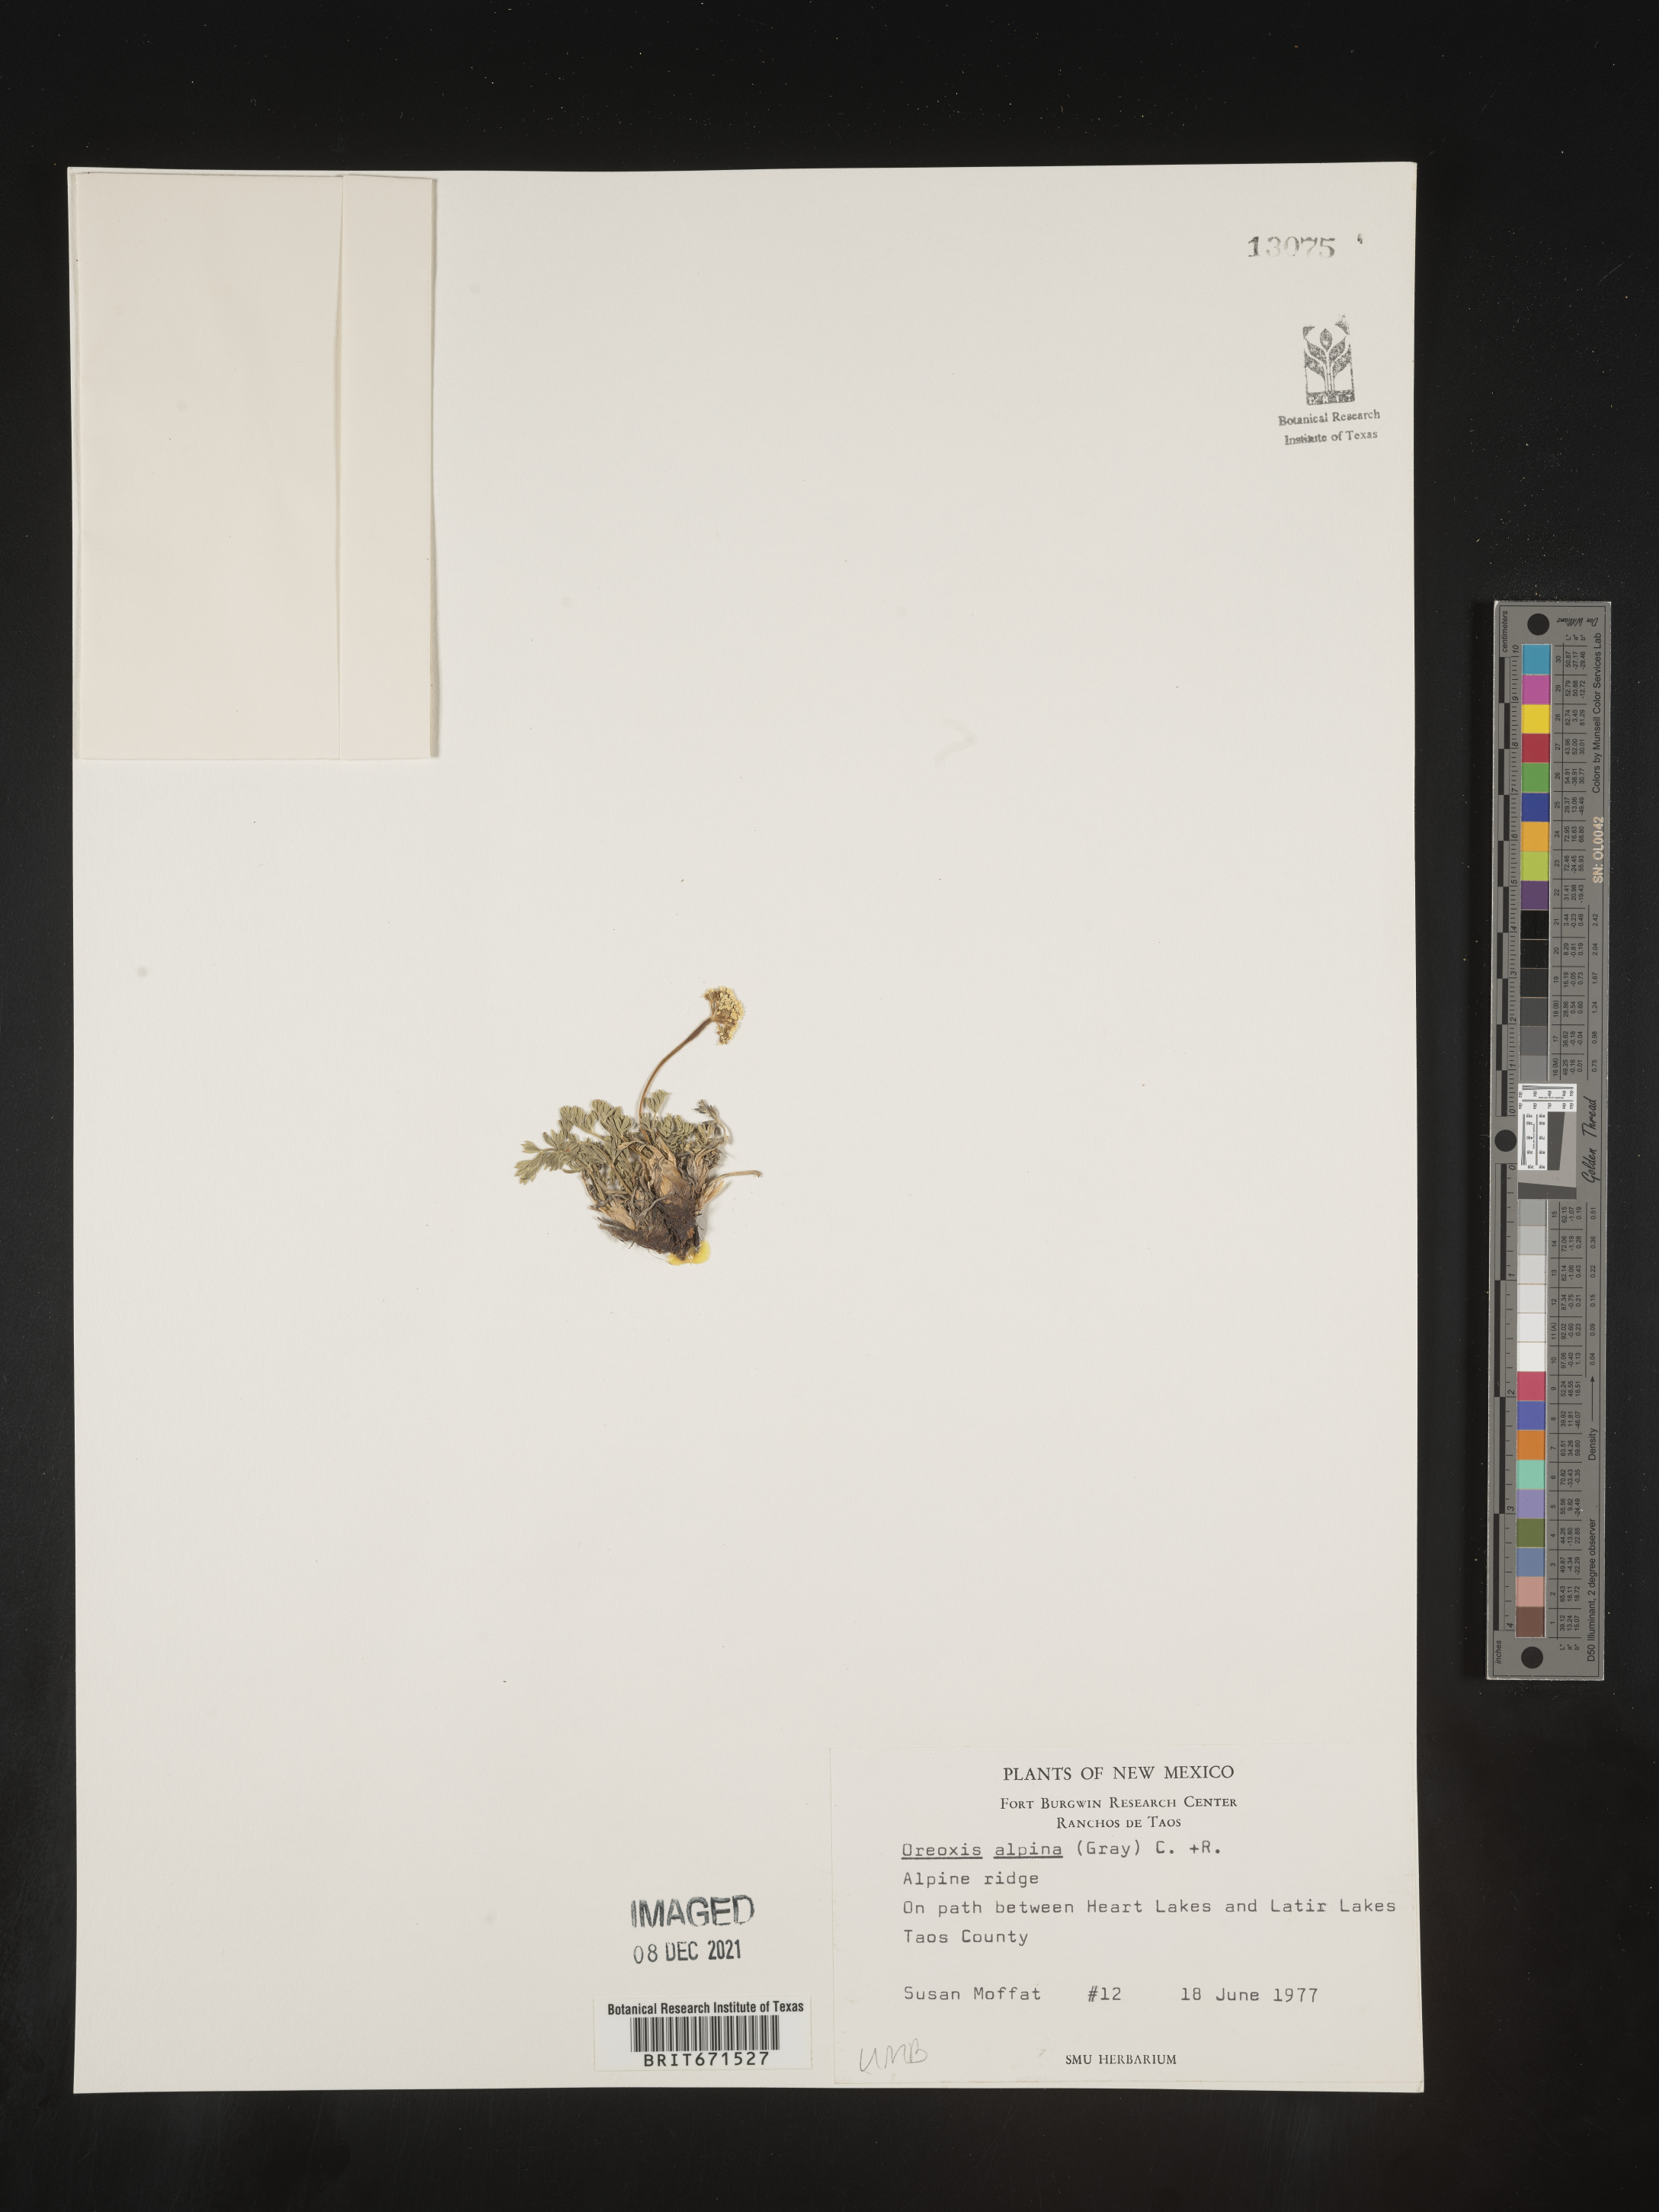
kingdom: Plantae
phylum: Tracheophyta
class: Magnoliopsida
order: Apiales
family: Apiaceae
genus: Oreoxis
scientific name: Oreoxis alpina
